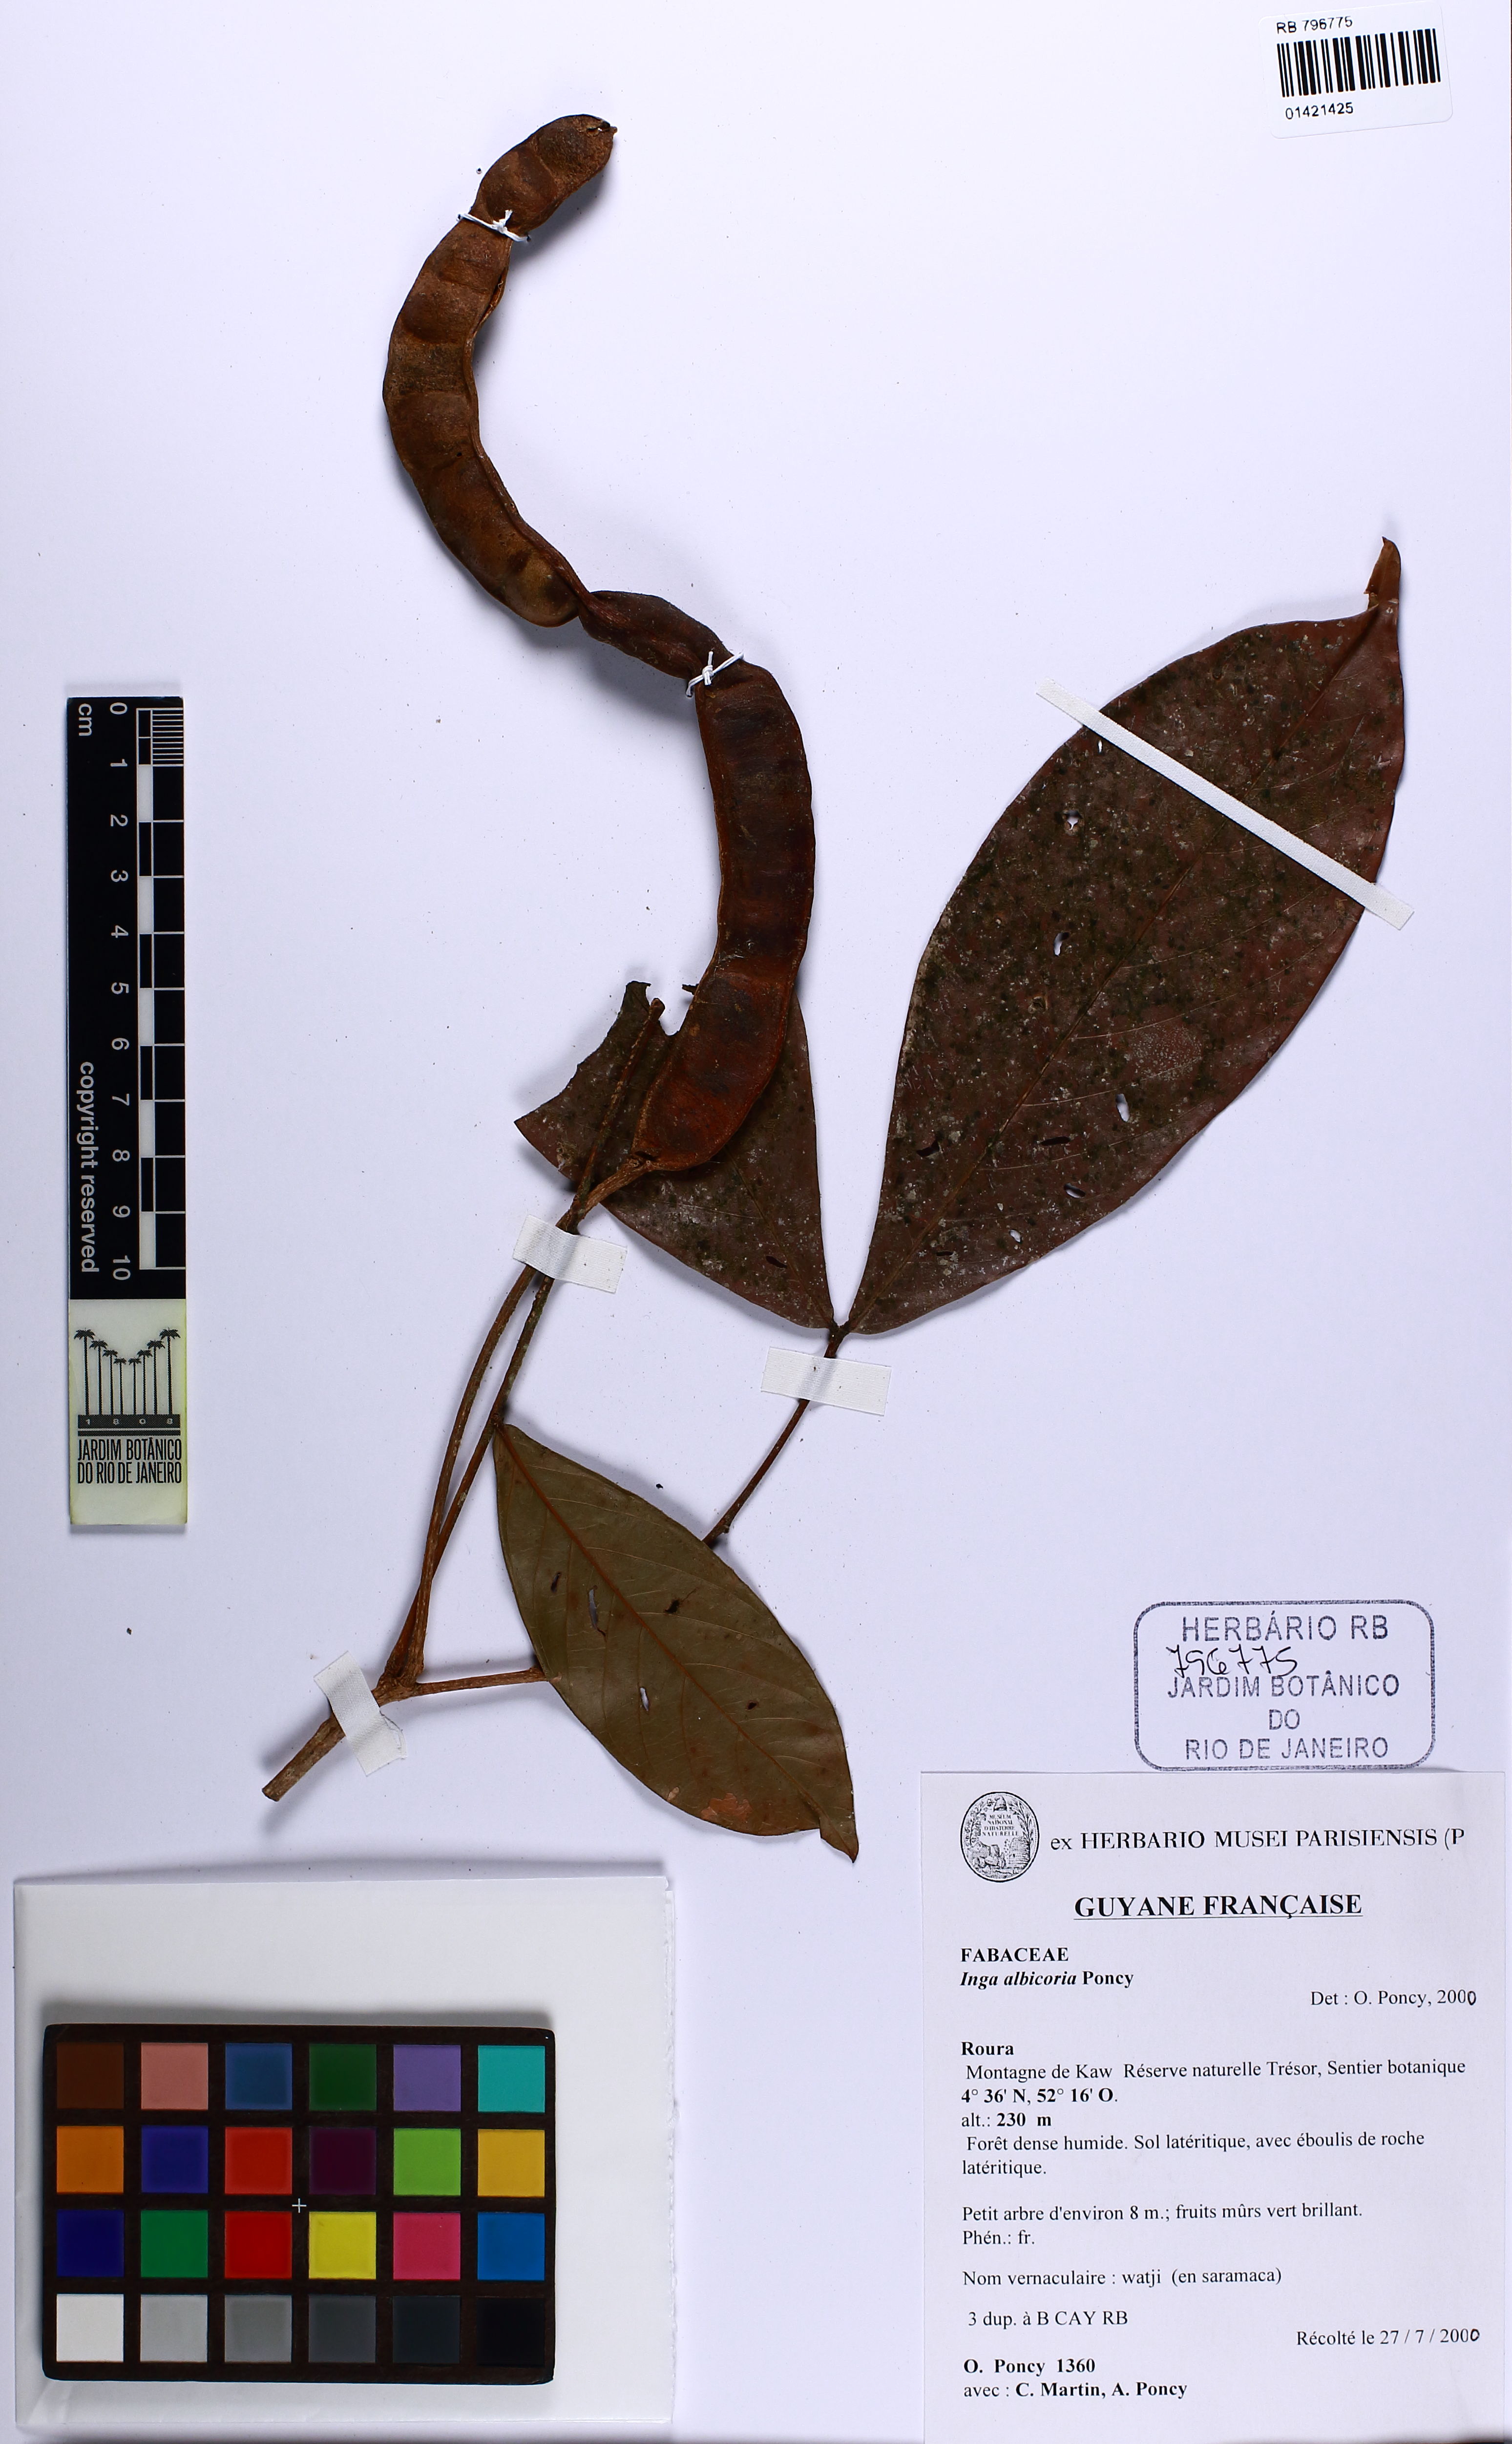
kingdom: Plantae
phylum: Tracheophyta
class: Magnoliopsida
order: Fabales
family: Fabaceae
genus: Inga
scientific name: Inga cylindrica
